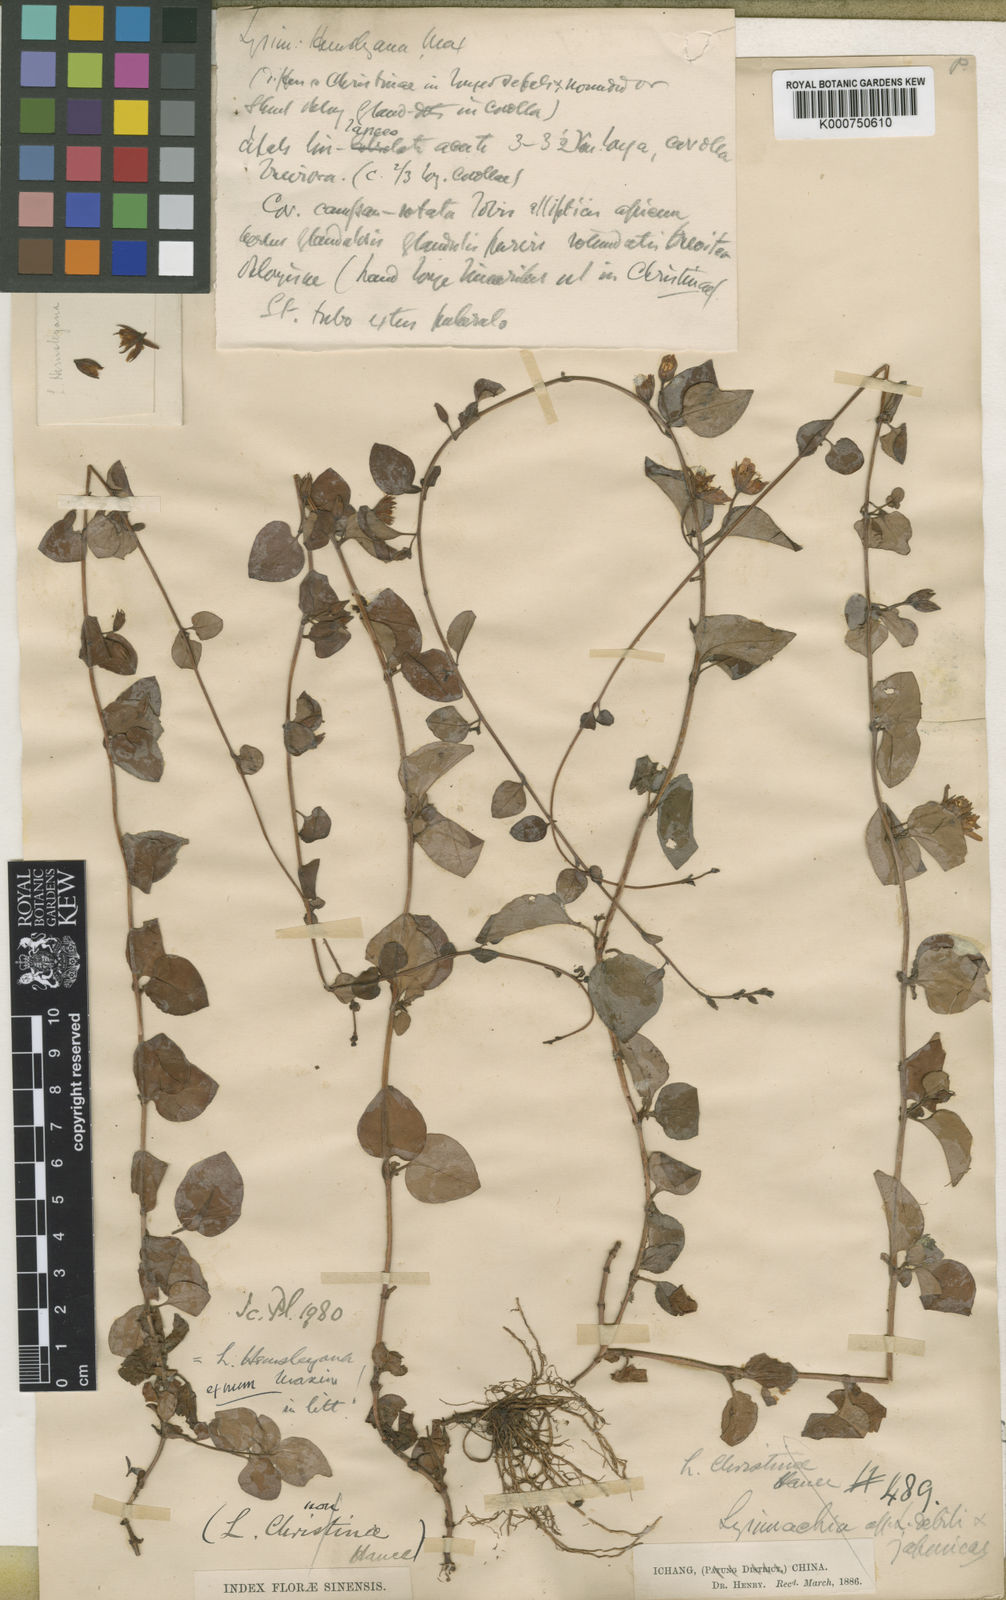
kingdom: Plantae
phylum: Tracheophyta
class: Magnoliopsida
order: Ericales
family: Primulaceae
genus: Lysimachia
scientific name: Lysimachia hemsleyana
